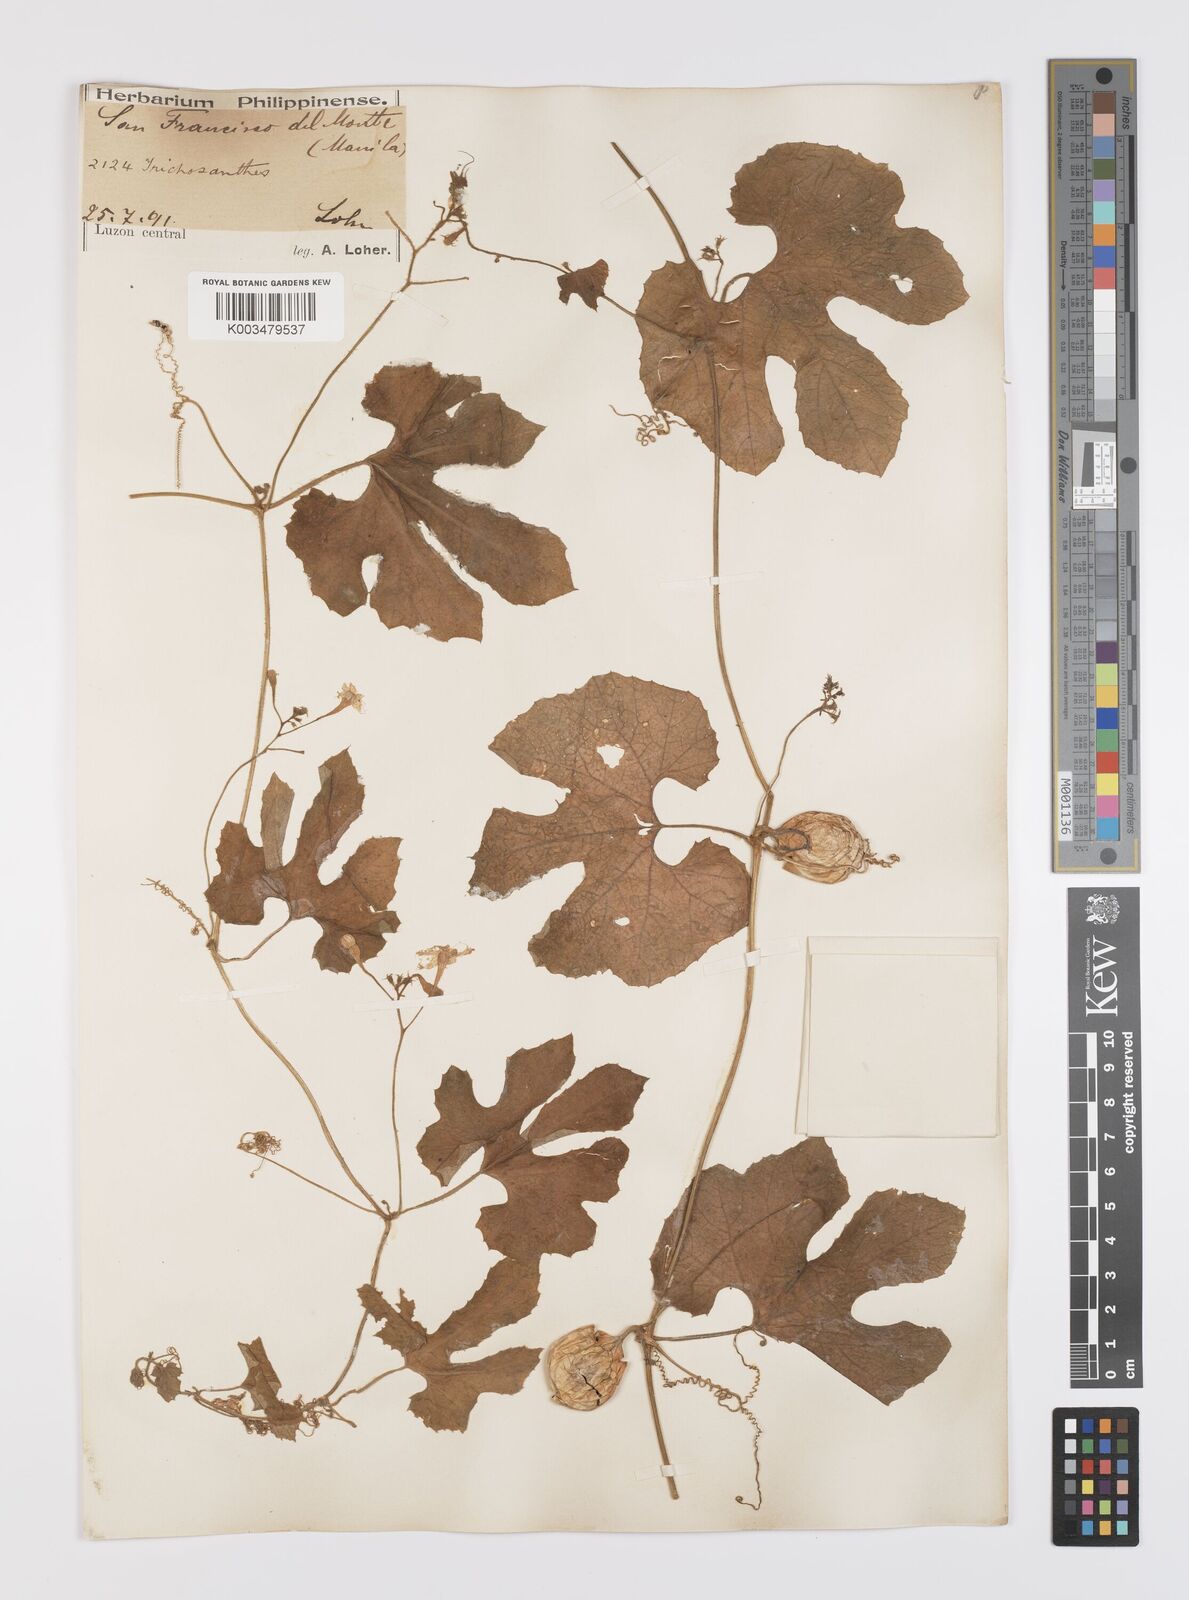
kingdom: Plantae
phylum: Tracheophyta
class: Magnoliopsida
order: Cucurbitales
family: Cucurbitaceae
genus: Trichosanthes
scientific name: Trichosanthes cucumerina
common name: Snakegourd
